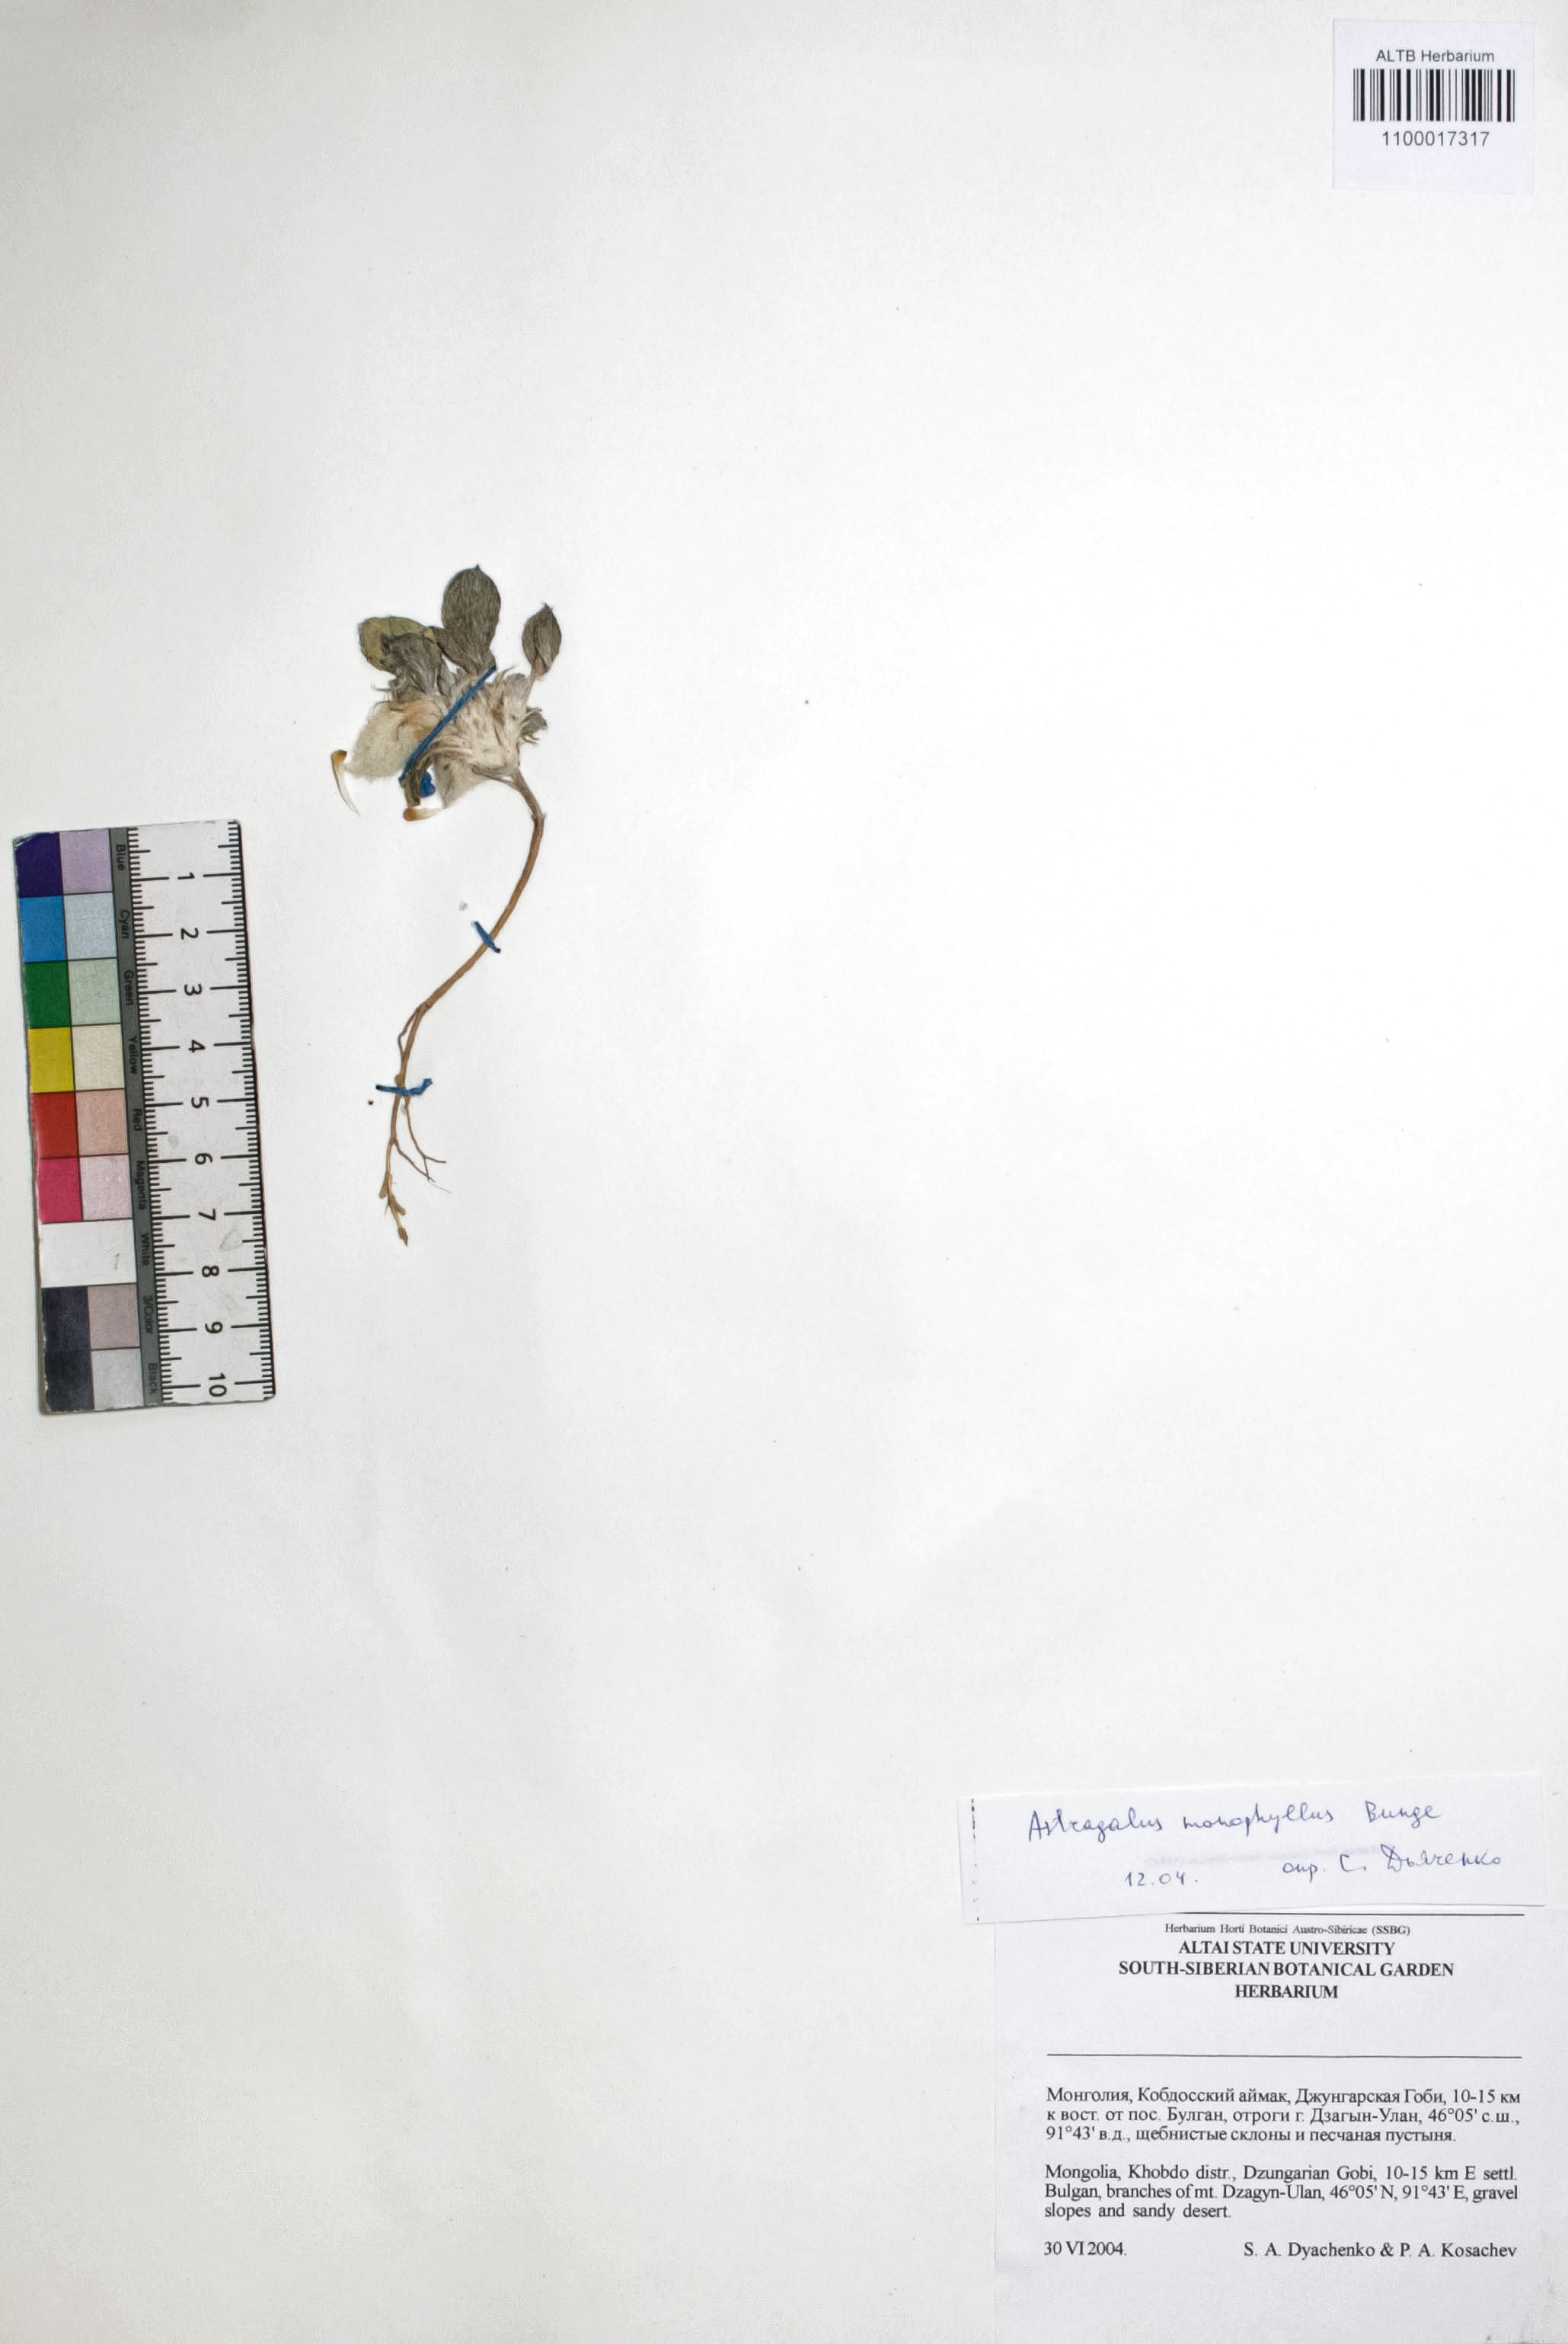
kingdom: Plantae
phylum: Tracheophyta
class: Magnoliopsida
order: Fabales
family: Fabaceae
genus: Astragalus
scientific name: Astragalus monophyllus
